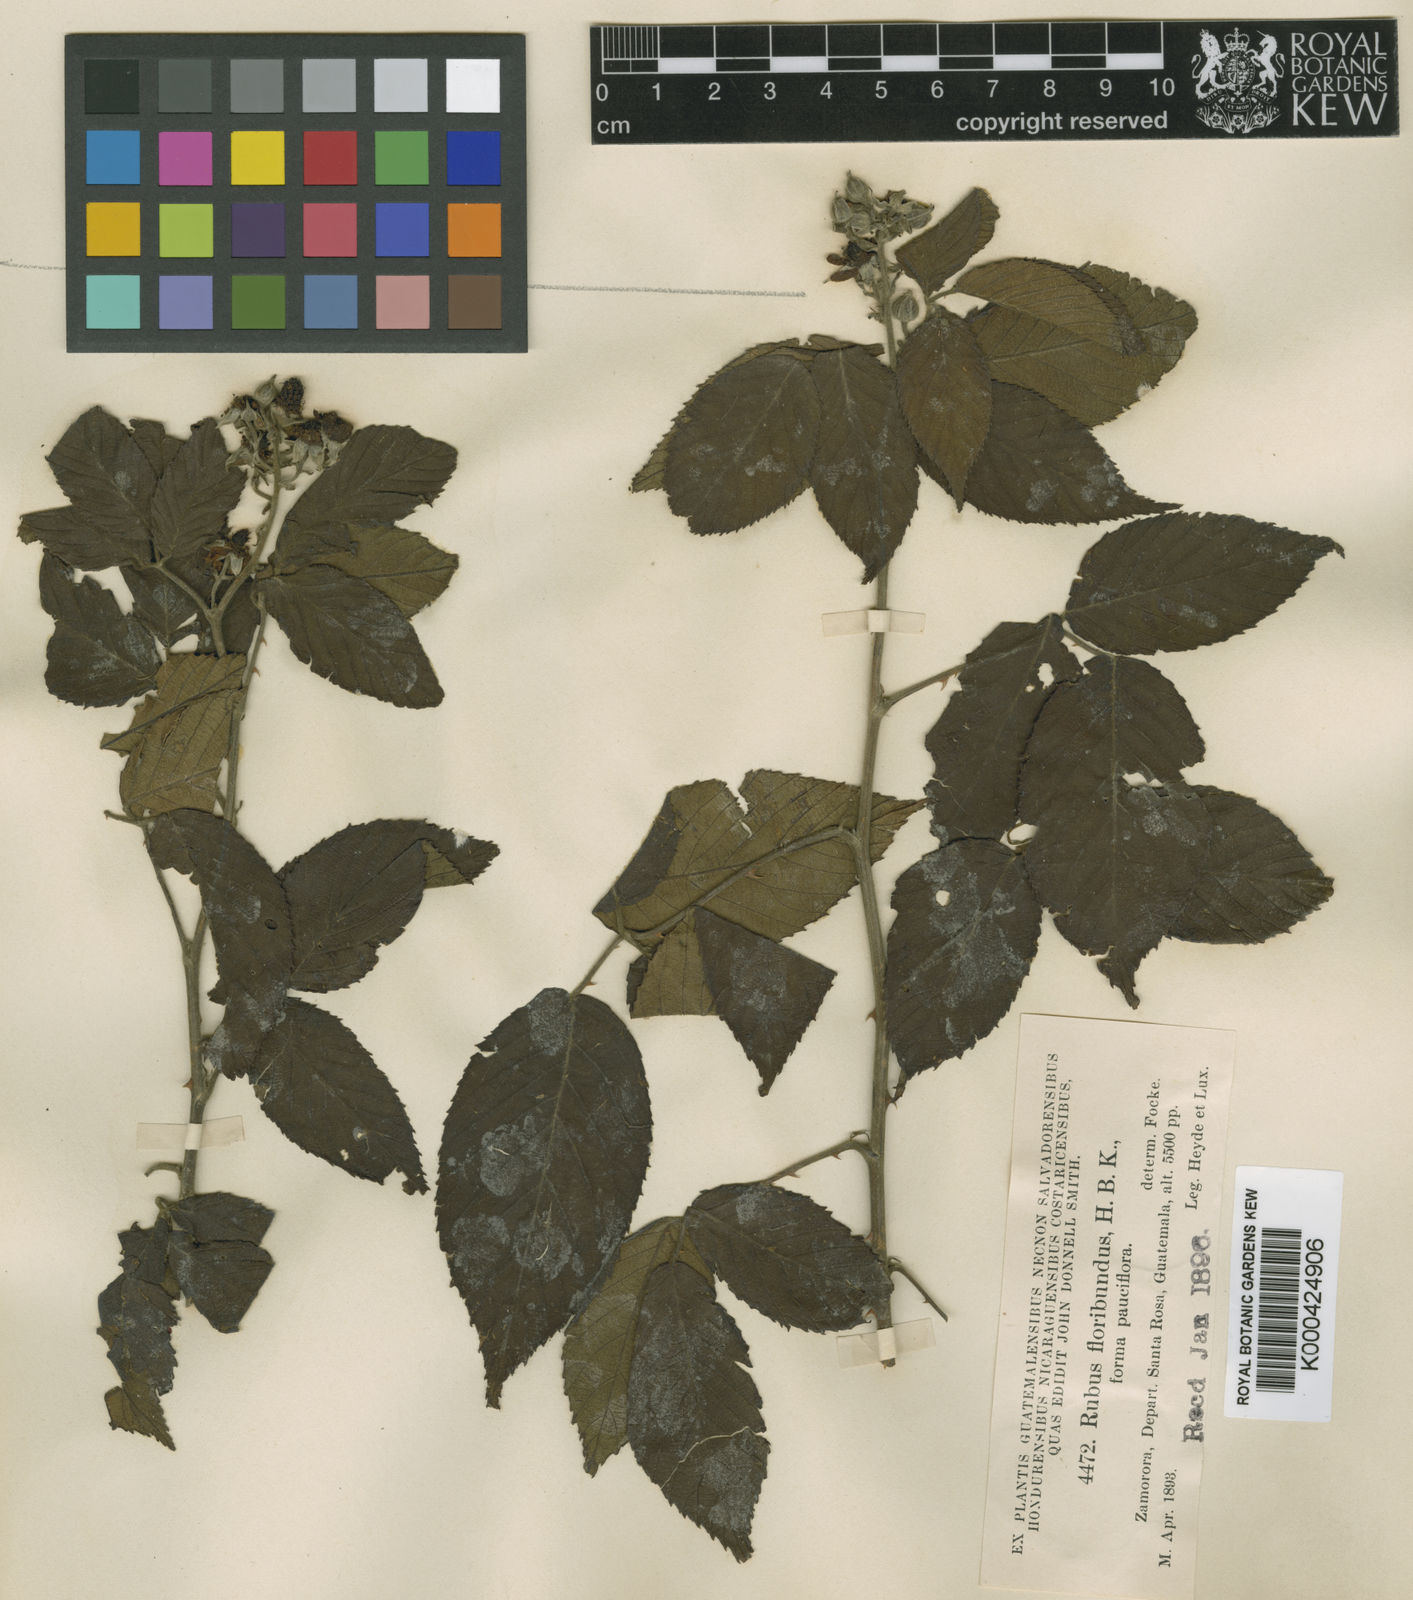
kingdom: Plantae
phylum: Tracheophyta
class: Magnoliopsida
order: Rosales
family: Rosaceae
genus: Rubus
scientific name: Rubus efferatus
